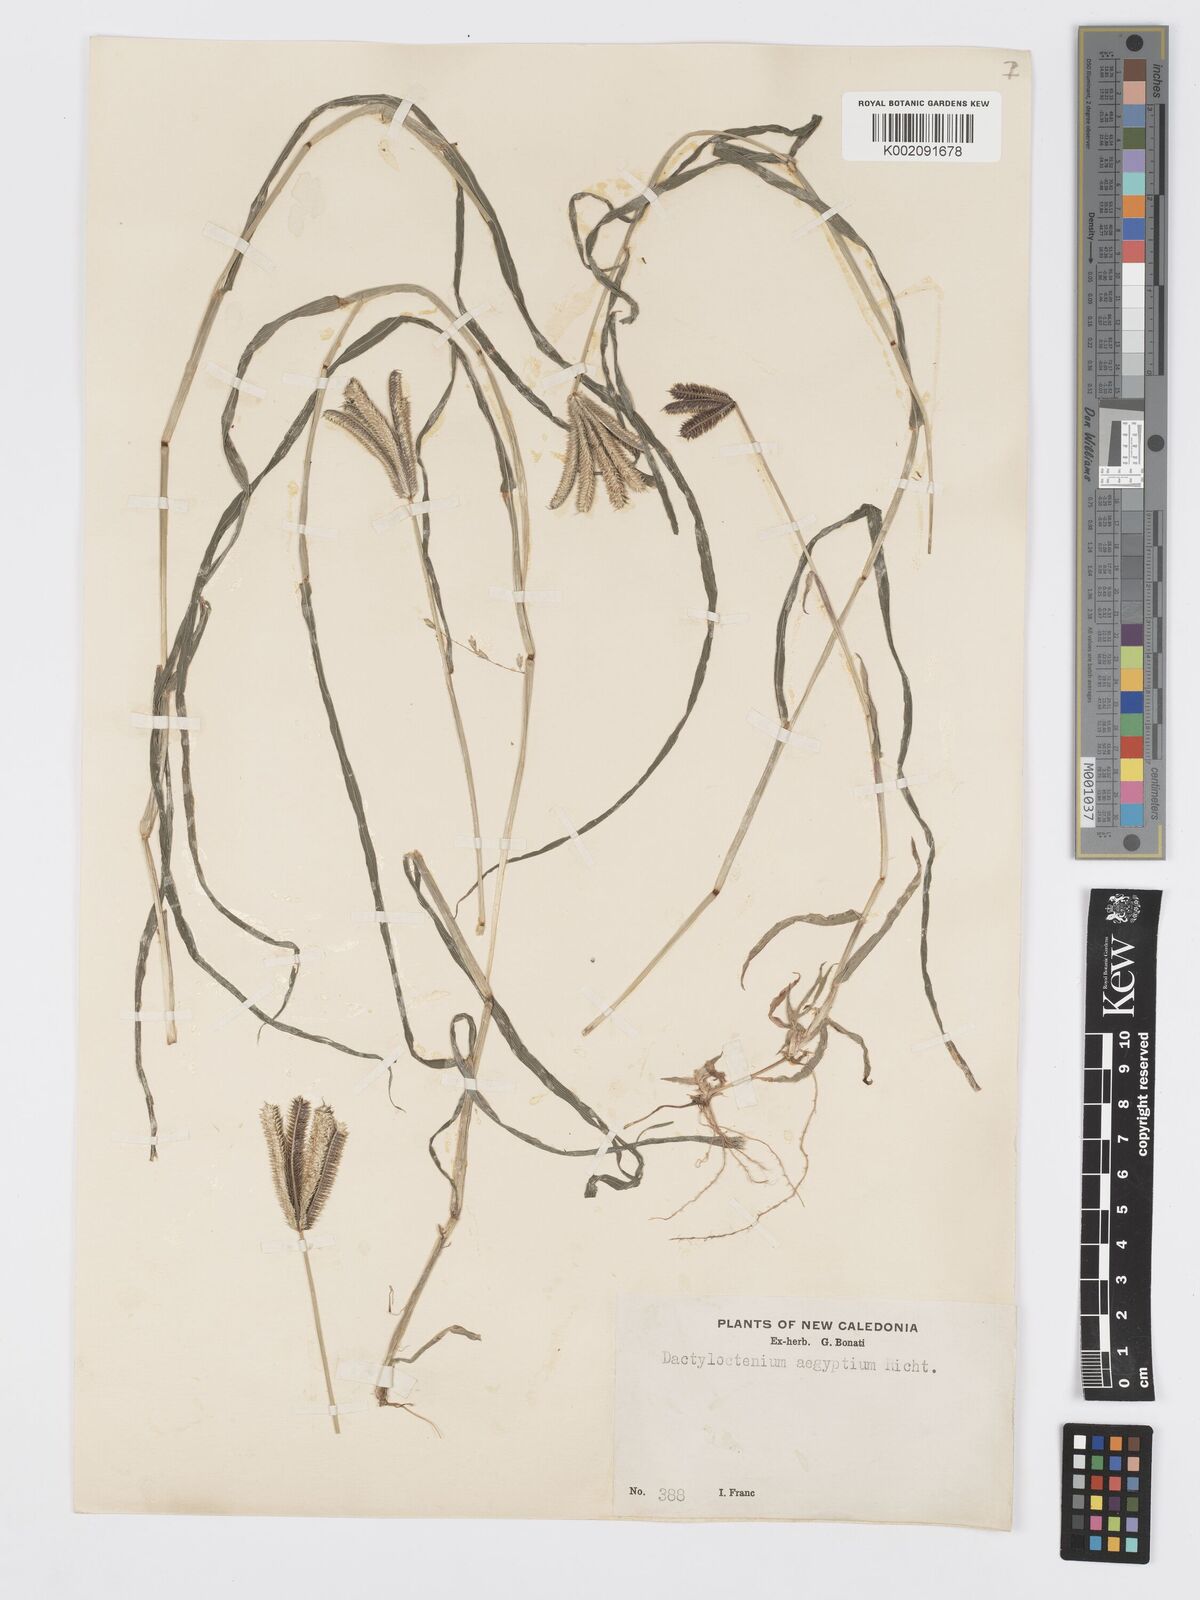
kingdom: Plantae
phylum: Tracheophyta
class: Liliopsida
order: Poales
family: Poaceae
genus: Dactyloctenium
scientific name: Dactyloctenium aegyptium
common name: Egyptian grass
